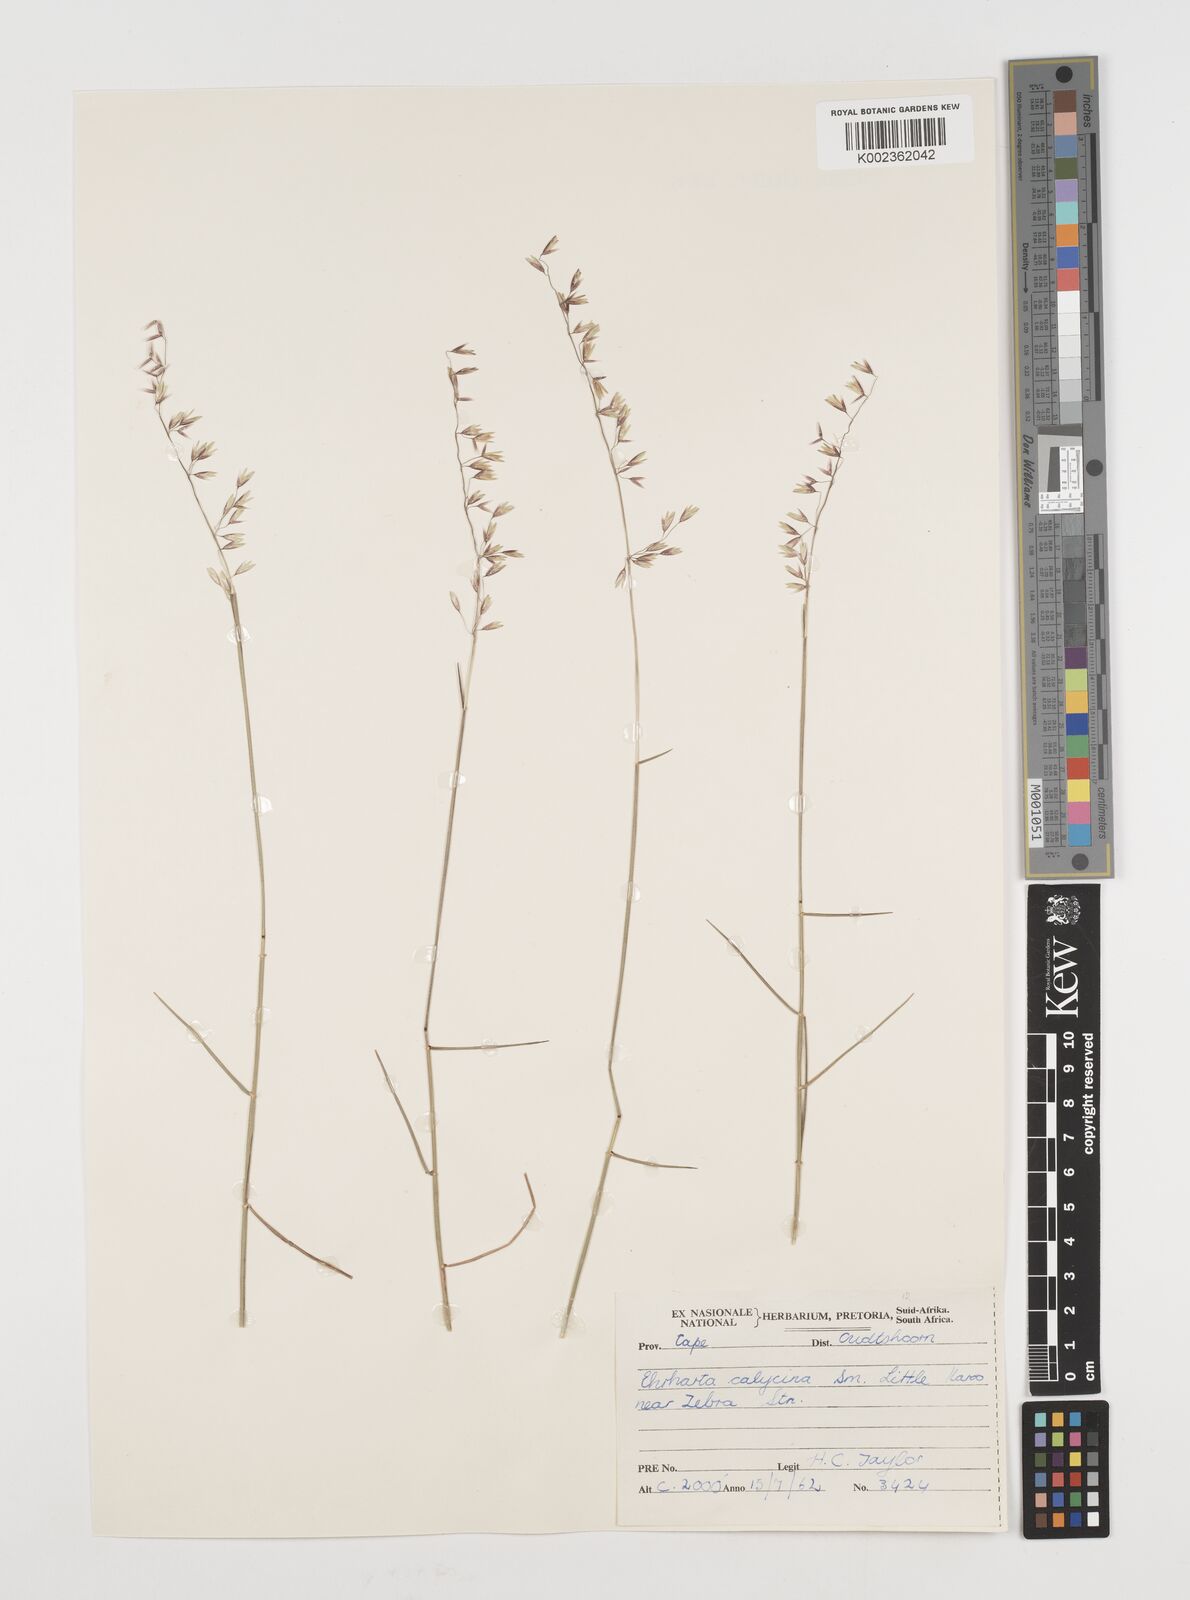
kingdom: Plantae
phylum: Tracheophyta
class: Liliopsida
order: Poales
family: Poaceae
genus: Ehrharta
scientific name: Ehrharta calycina
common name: Perennial veldtgrass
